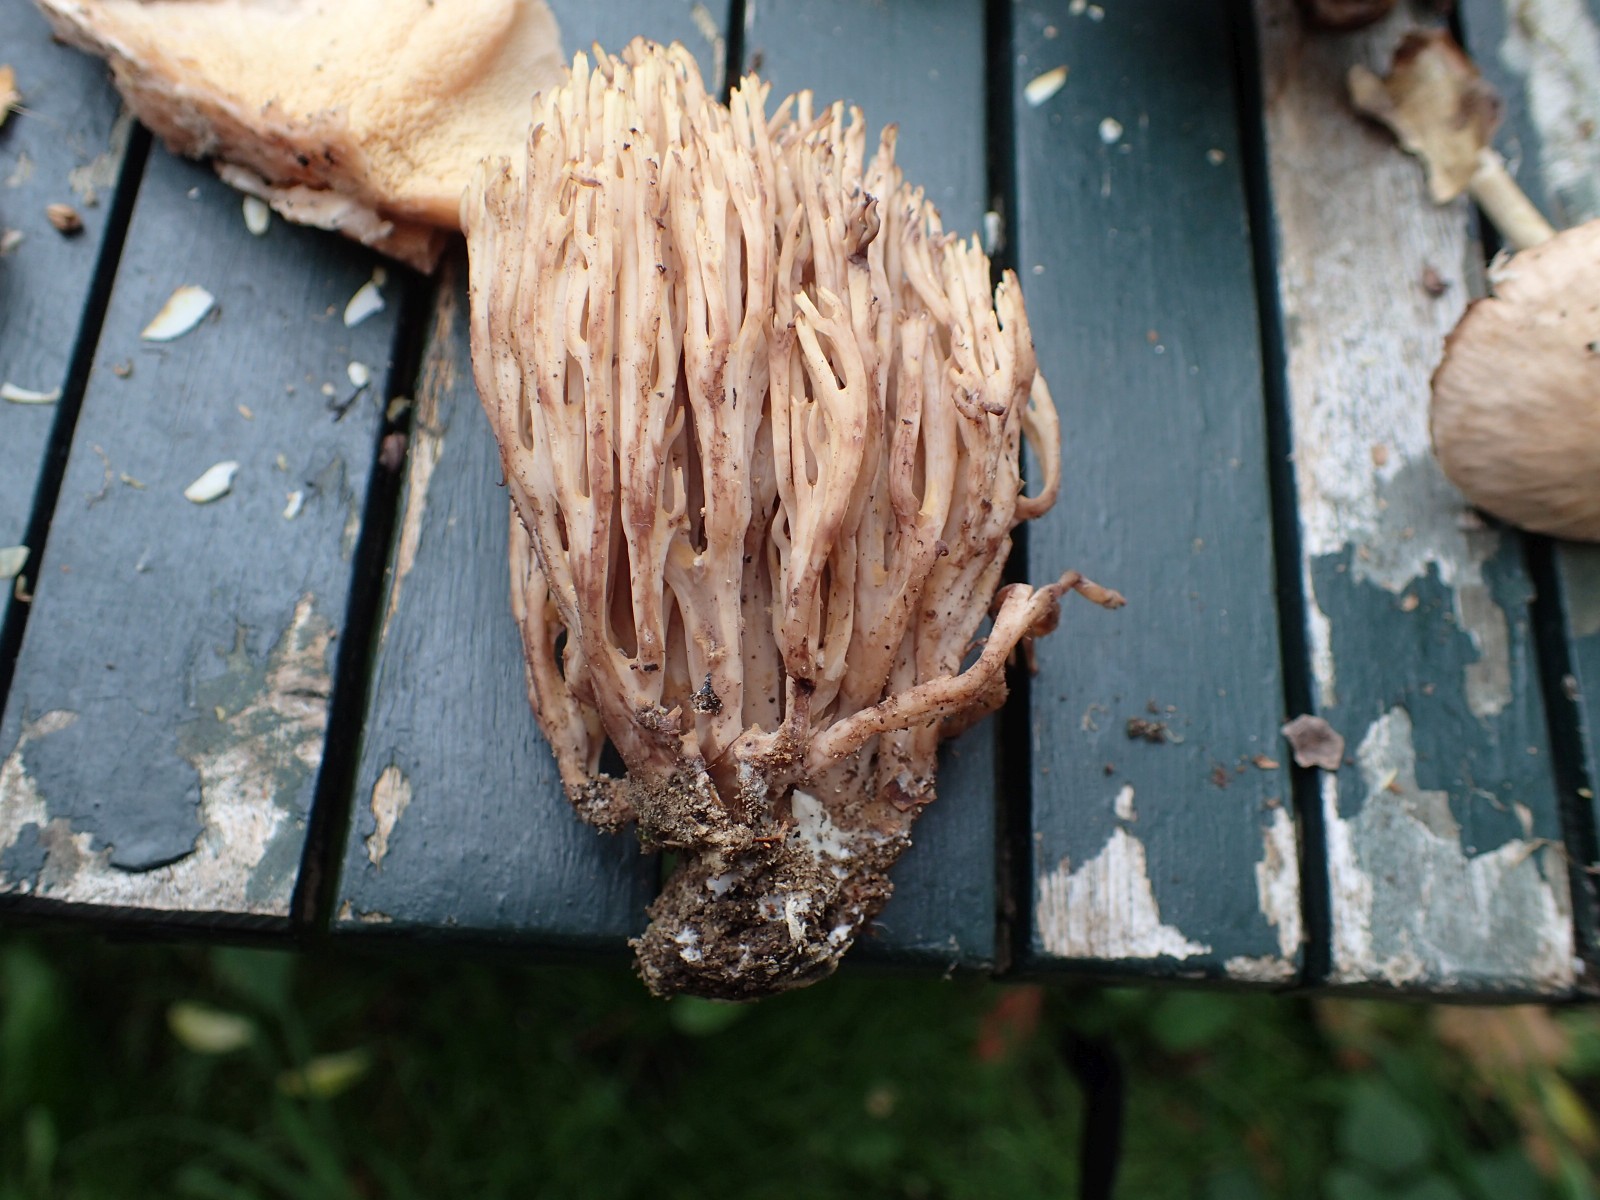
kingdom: Fungi
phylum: Basidiomycota
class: Agaricomycetes
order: Gomphales
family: Gomphaceae
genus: Ramaria
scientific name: Ramaria stricta
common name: rank koralsvamp
